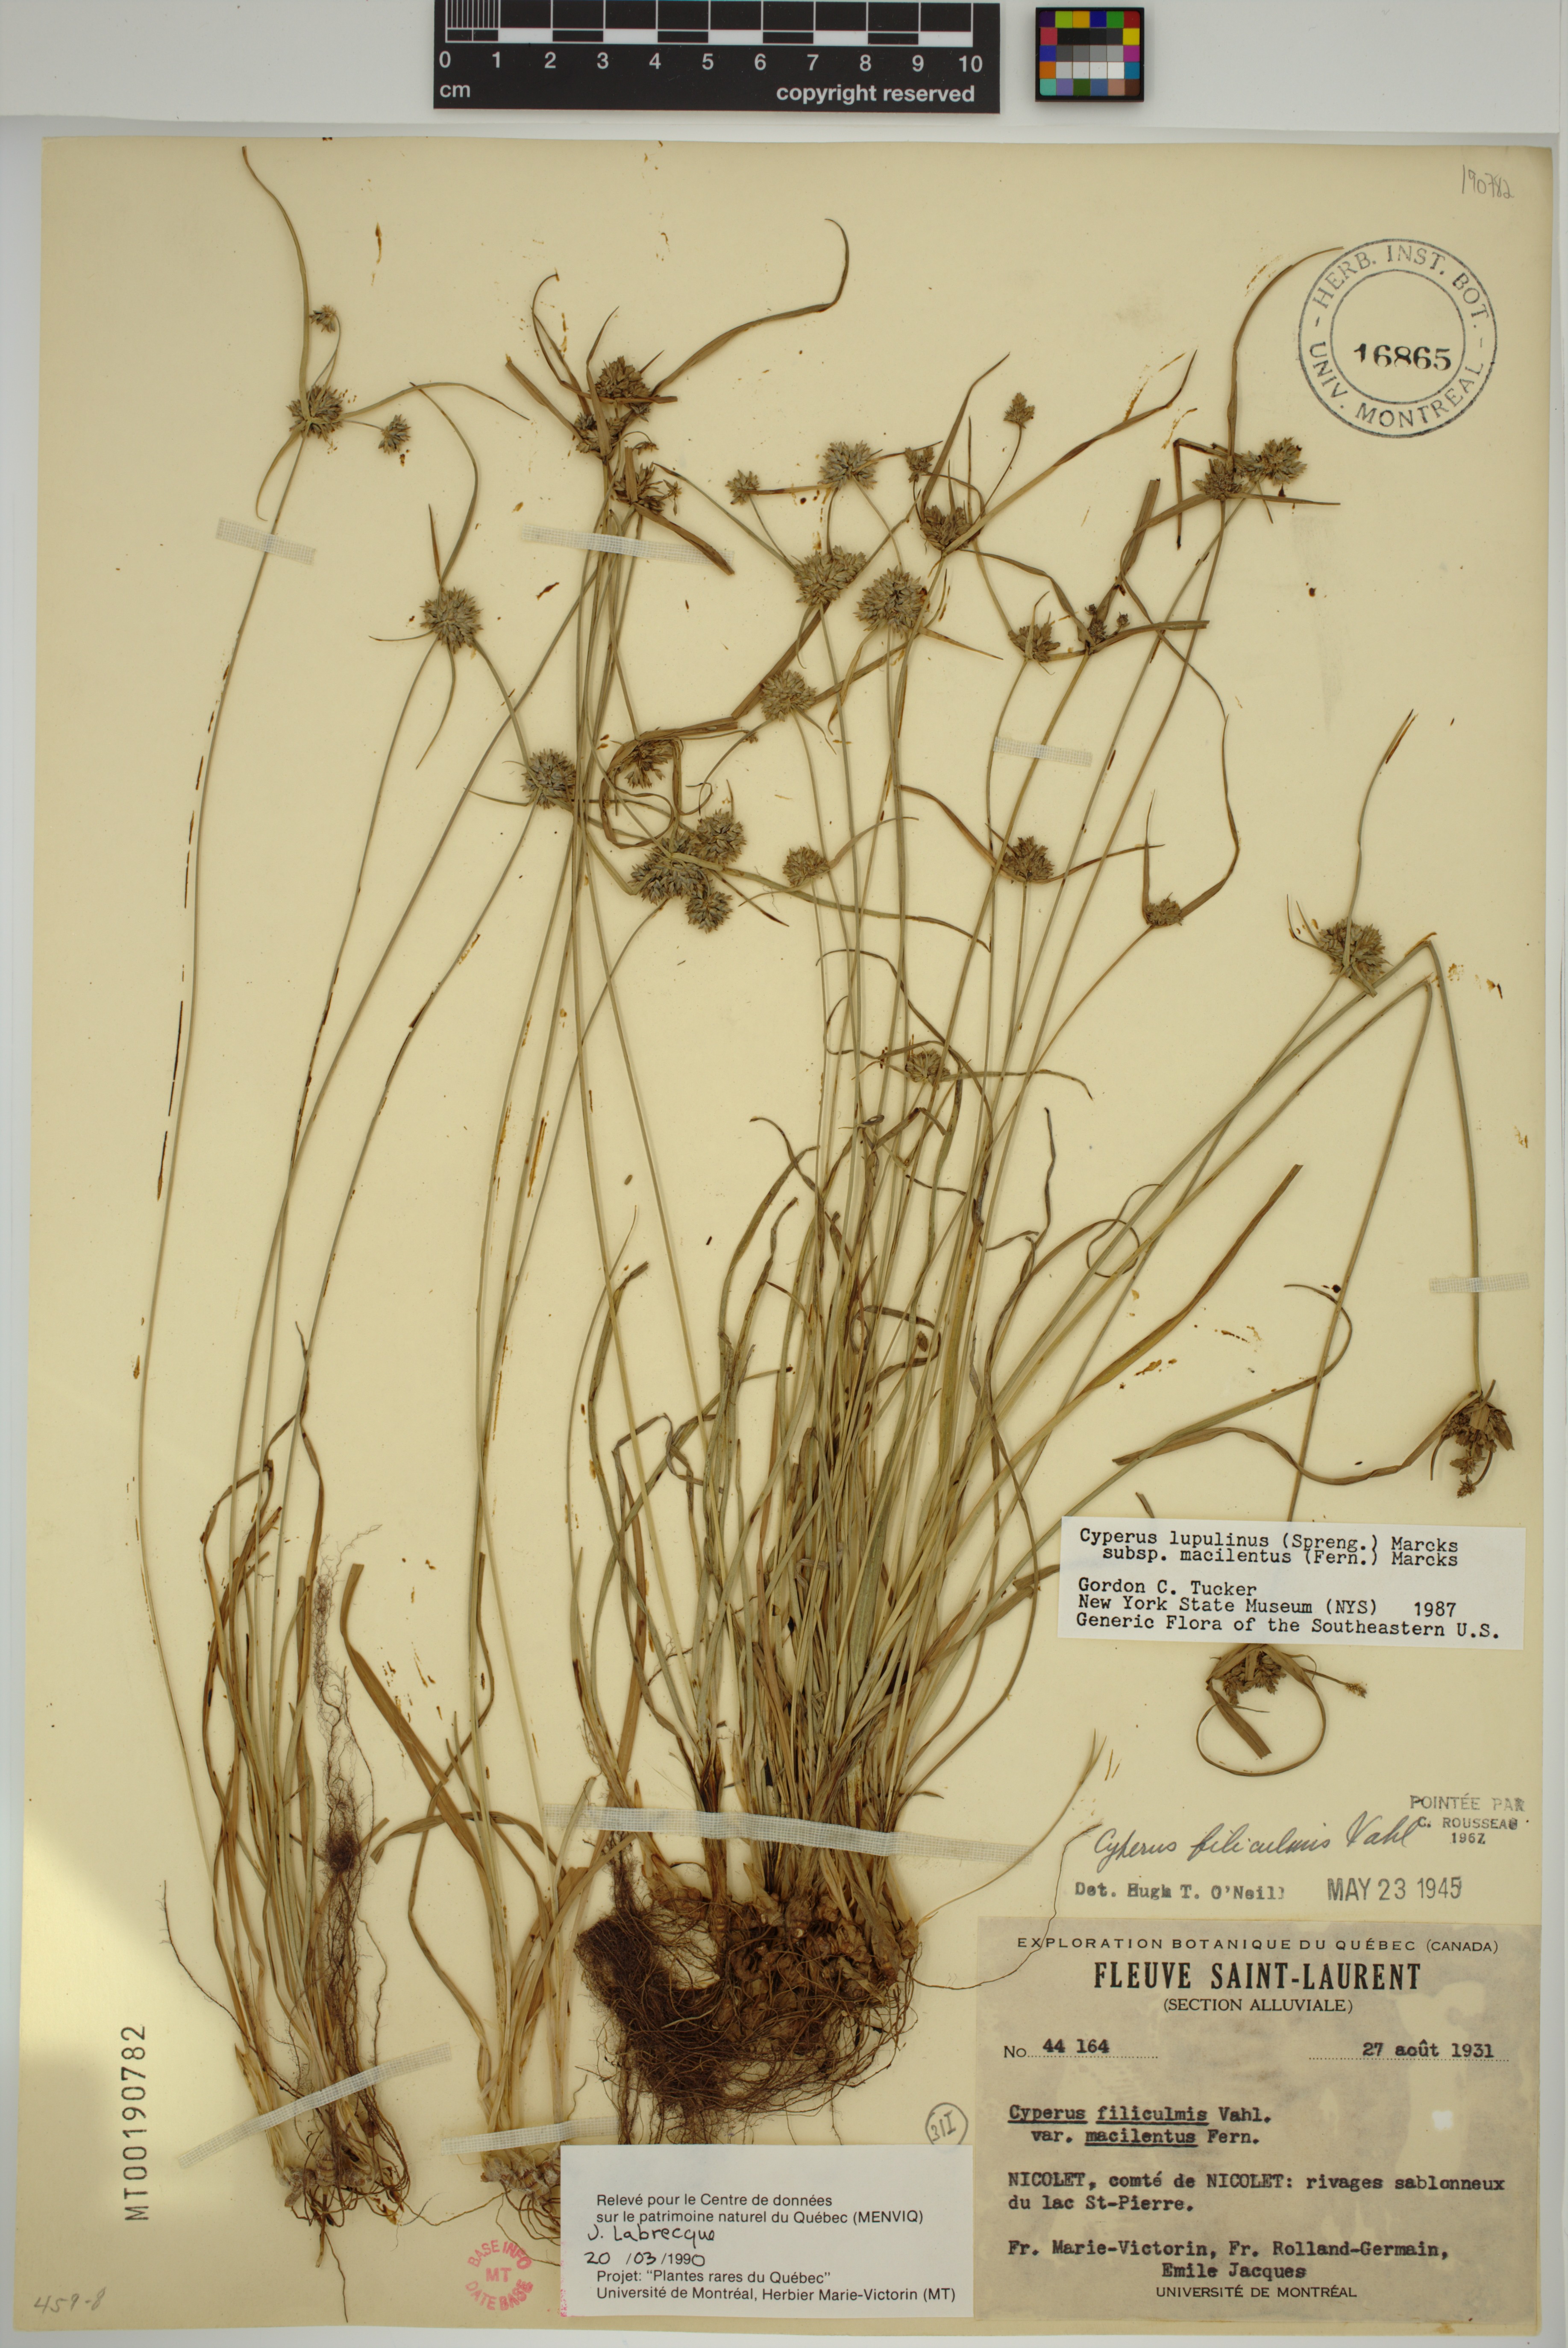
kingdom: Plantae
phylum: Tracheophyta
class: Liliopsida
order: Poales
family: Cyperaceae
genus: Cyperus
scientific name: Cyperus lupulinus
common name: Great plains flatsedge
